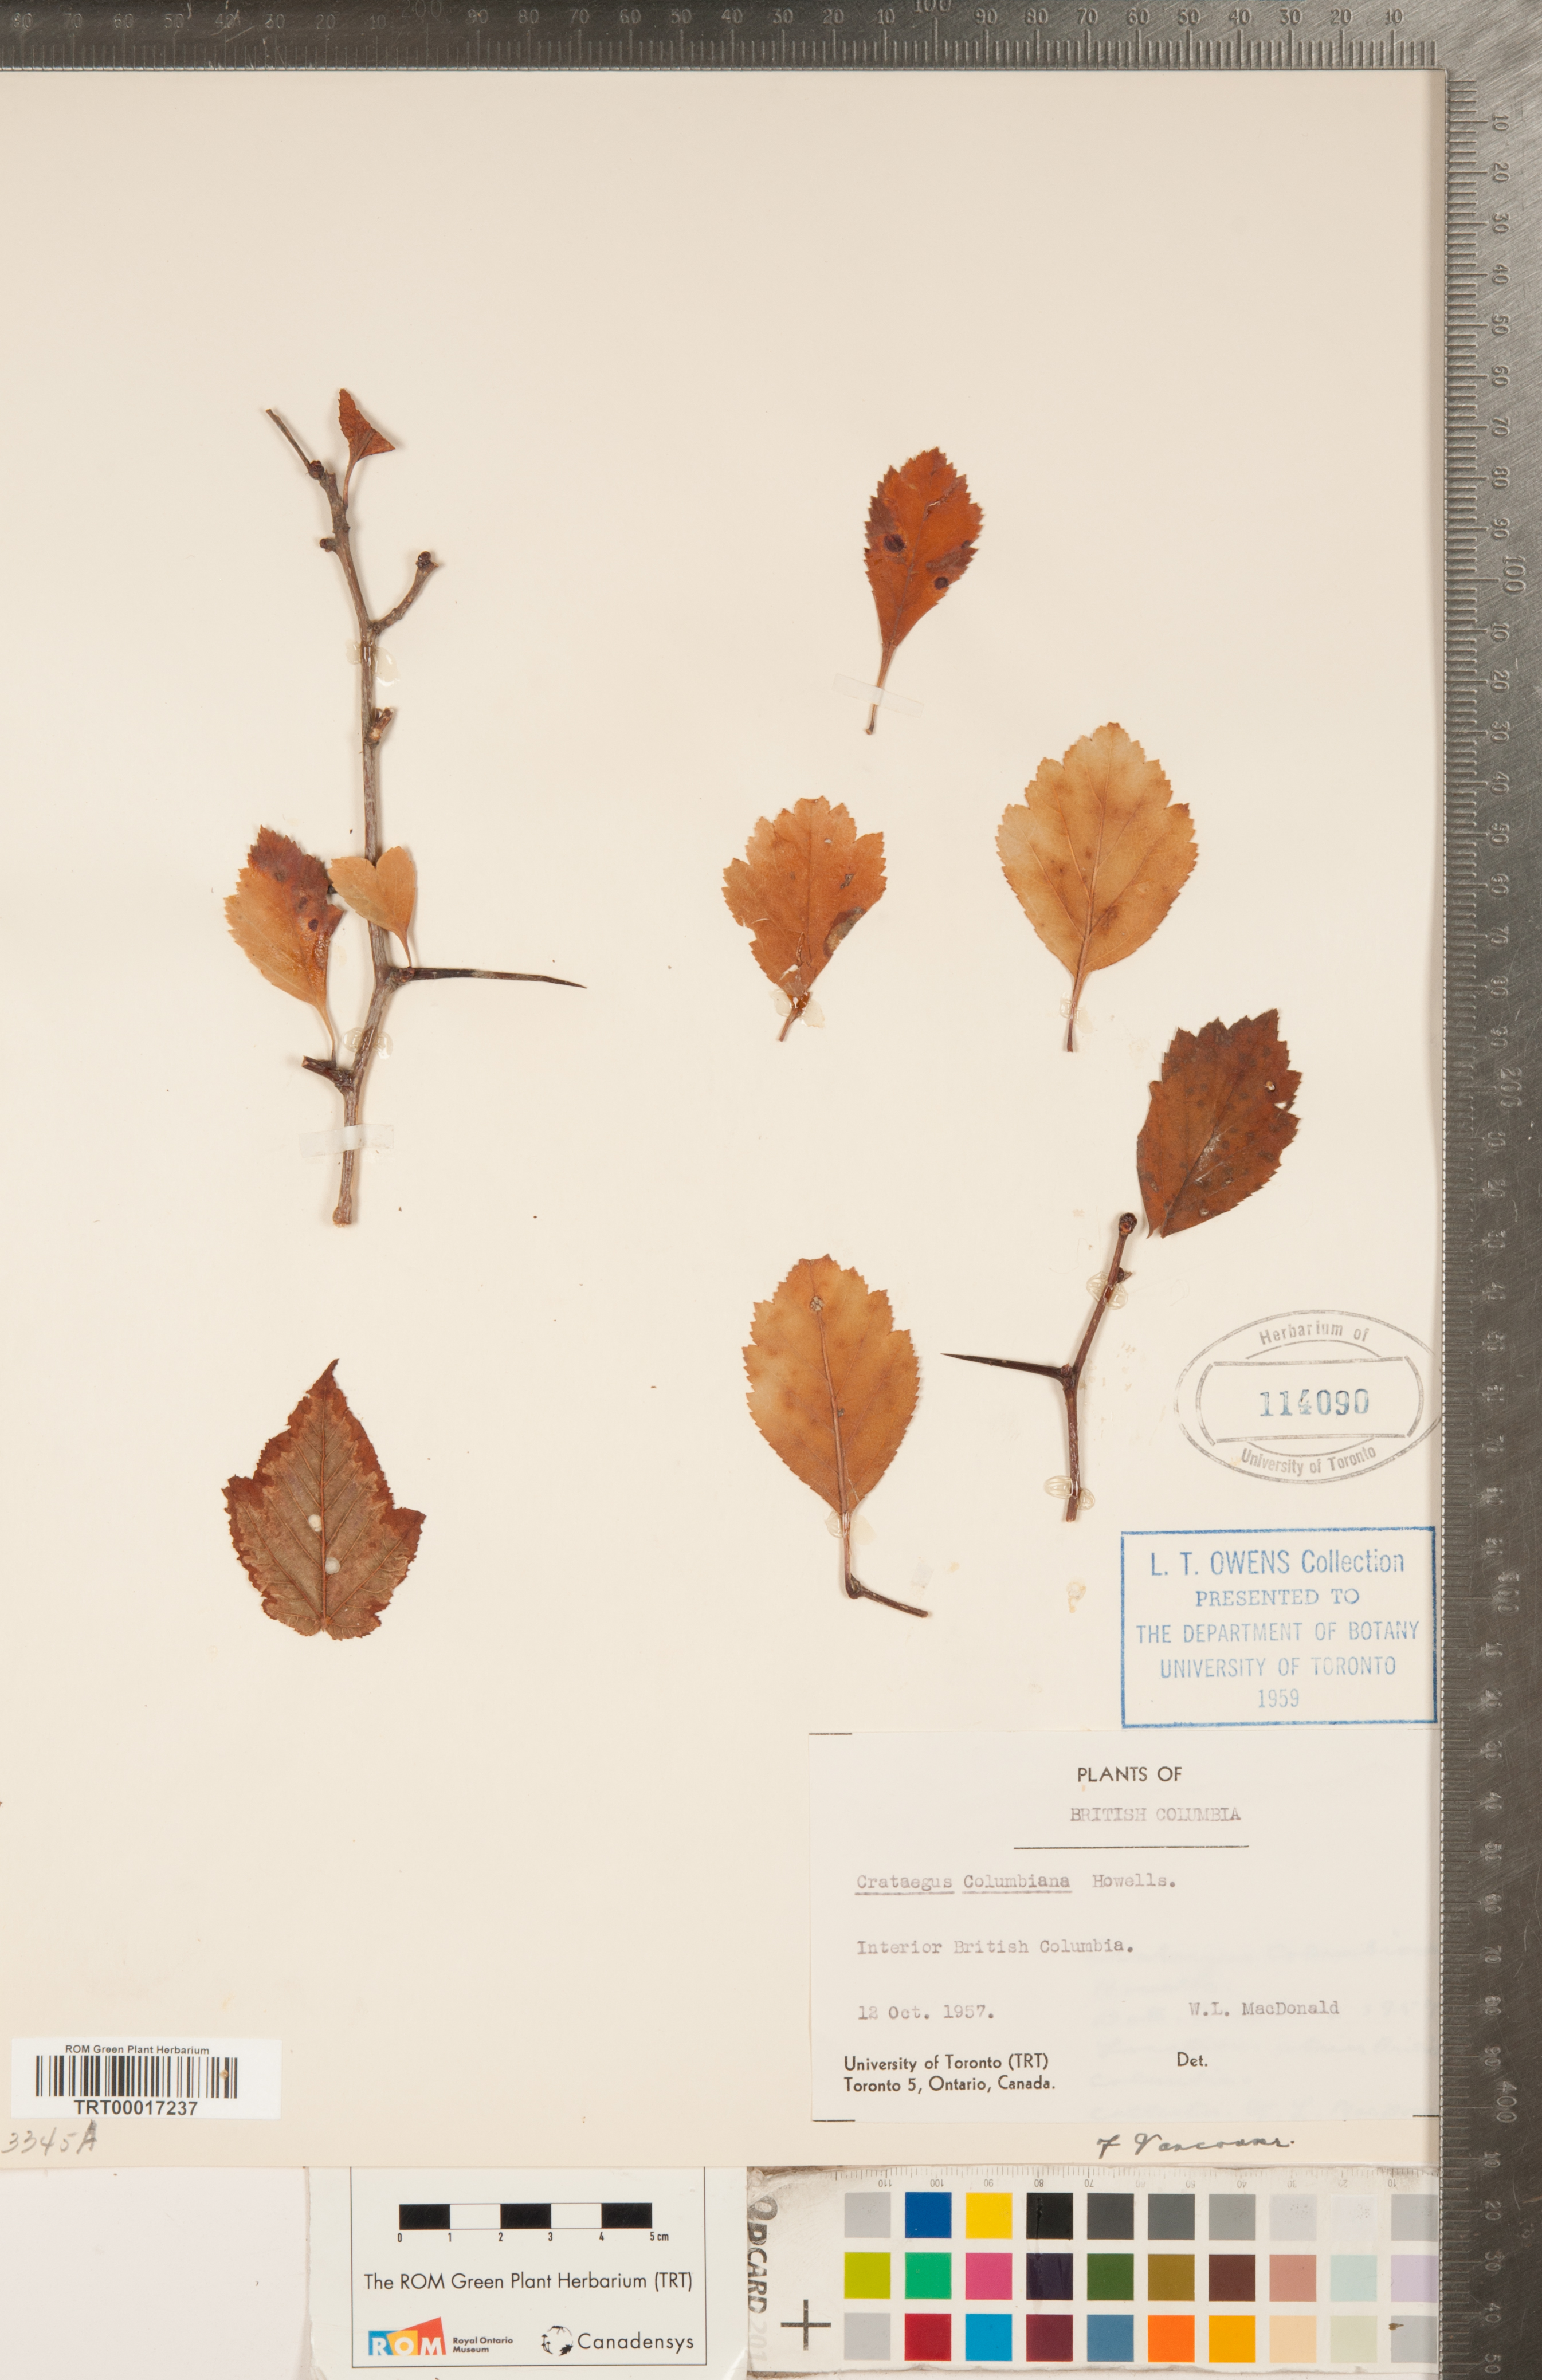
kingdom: Plantae
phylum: Tracheophyta
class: Magnoliopsida
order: Rosales
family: Rosaceae
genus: Crataegus
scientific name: Crataegus douglasii
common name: Black hawthorn
